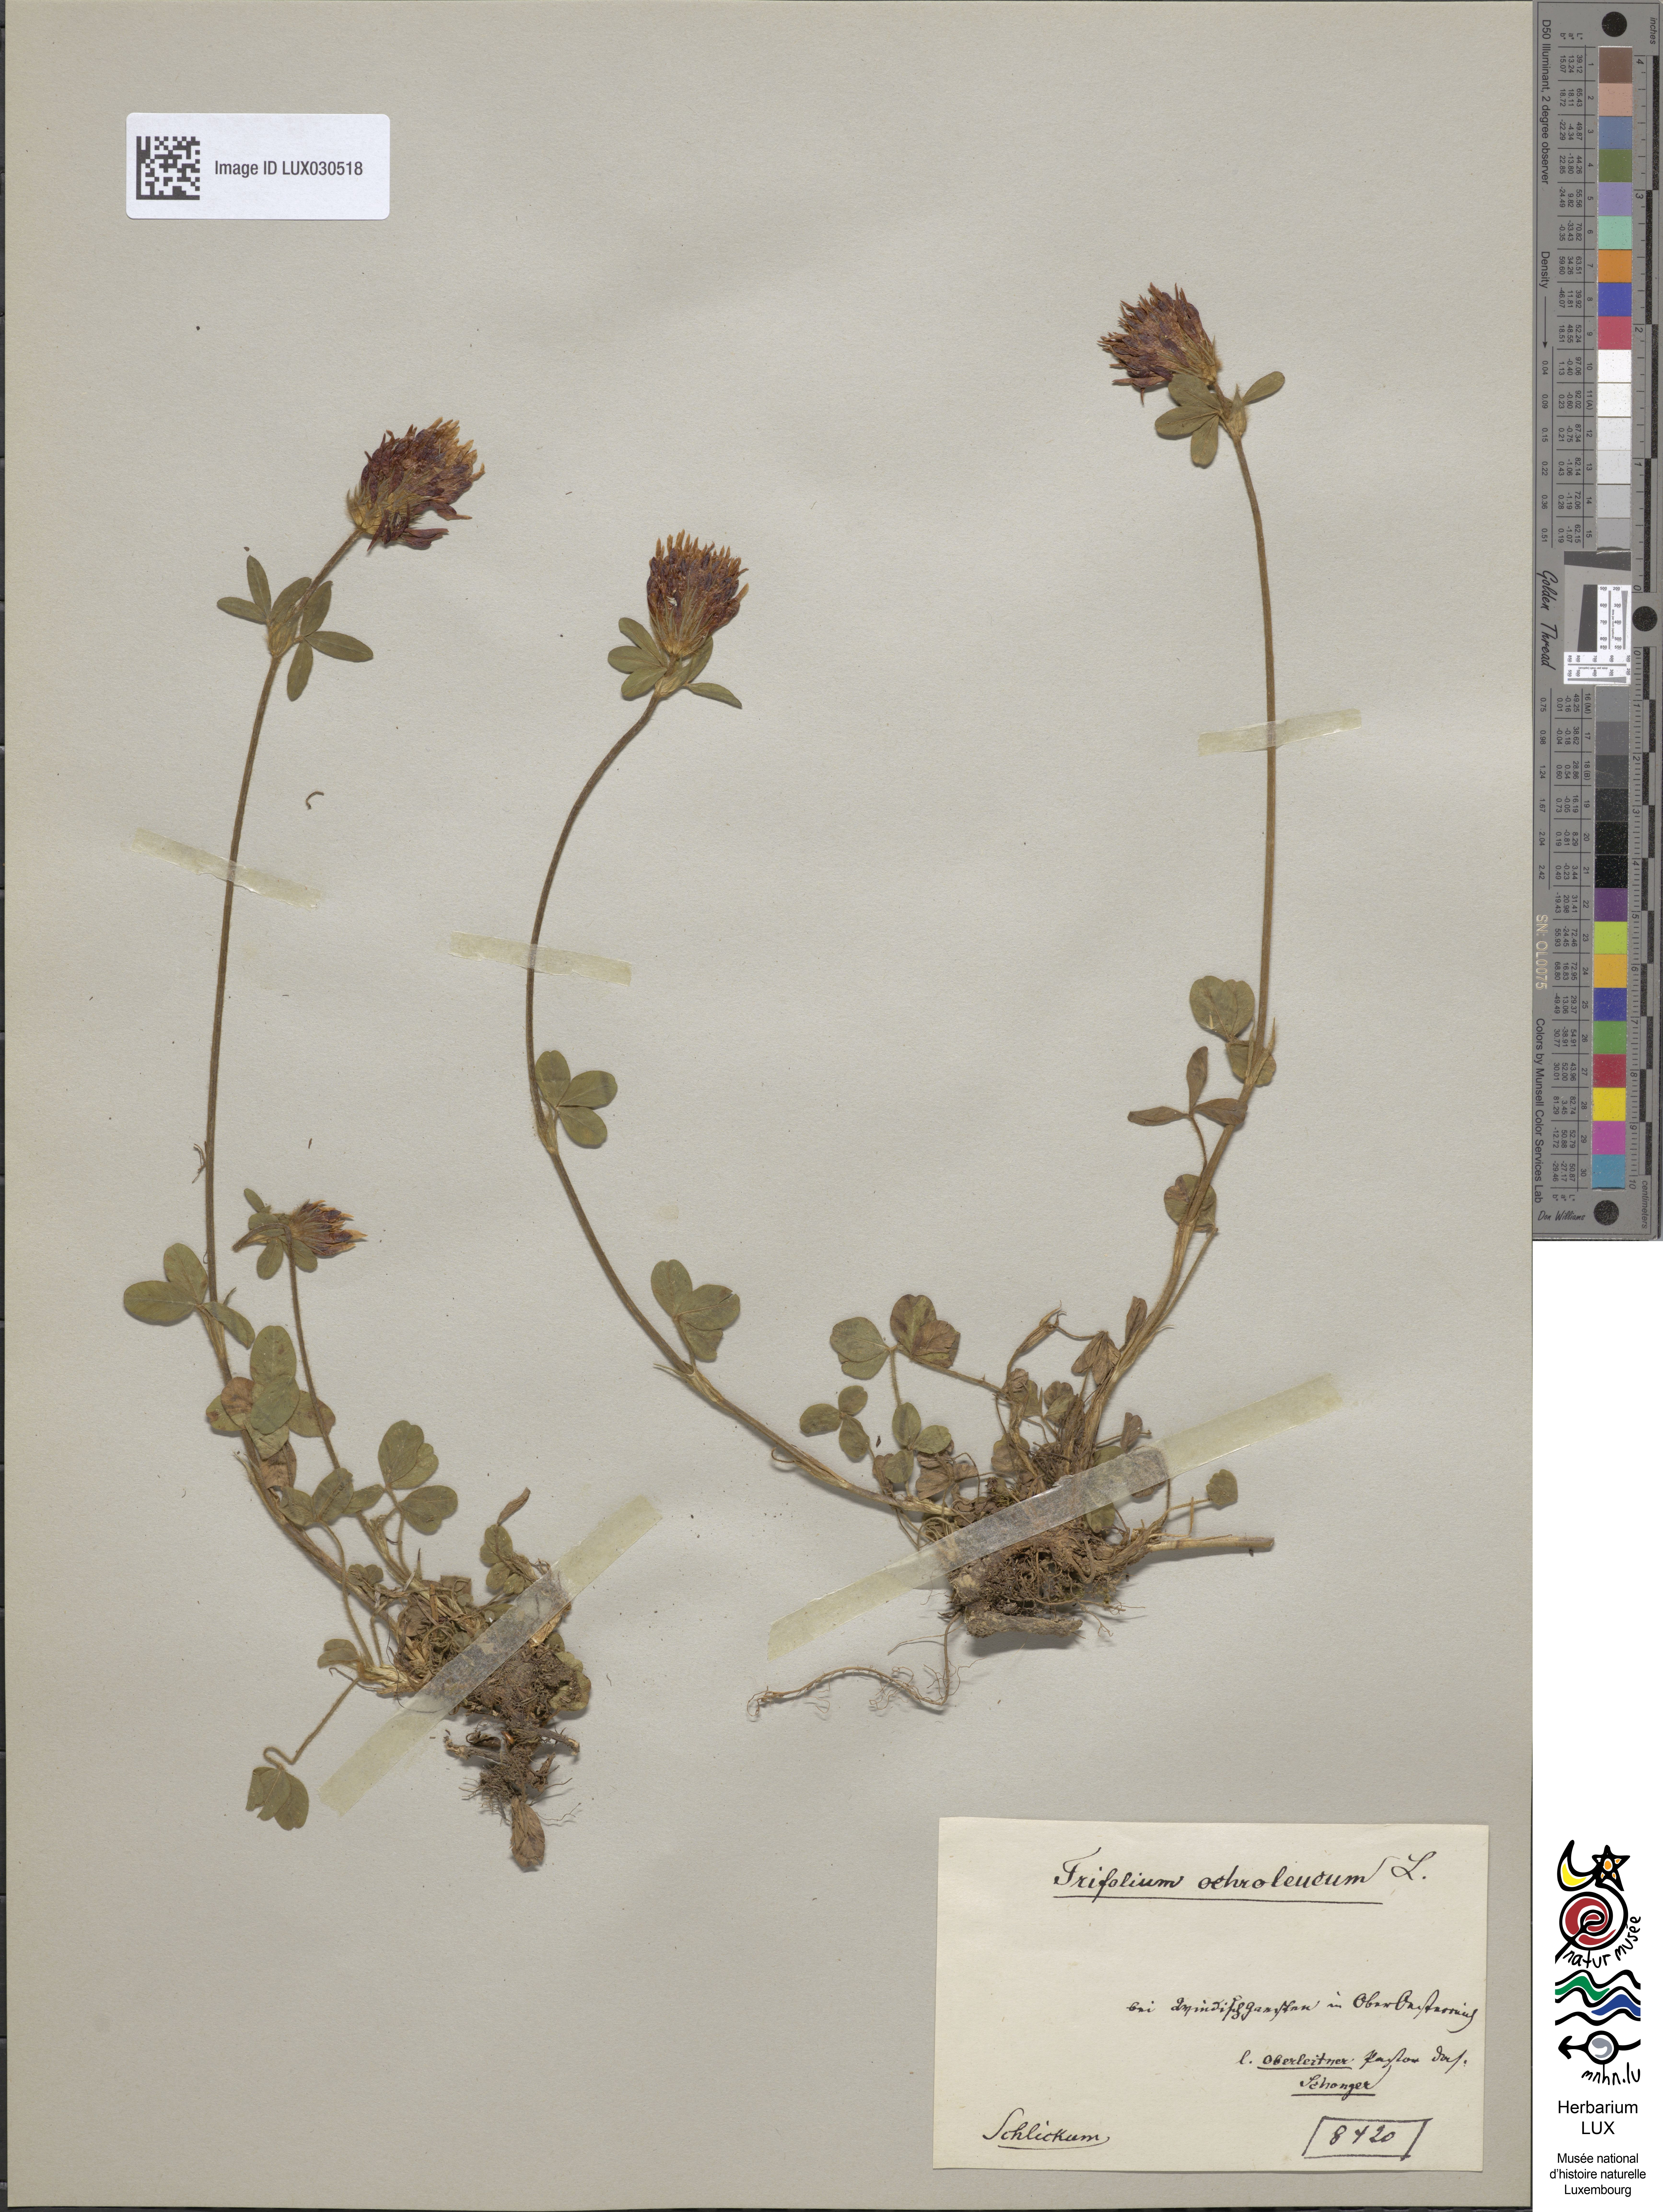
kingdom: Plantae
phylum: Tracheophyta
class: Magnoliopsida
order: Fabales
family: Fabaceae
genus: Trifolium
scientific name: Trifolium ochroleucon
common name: Sulphur clover
